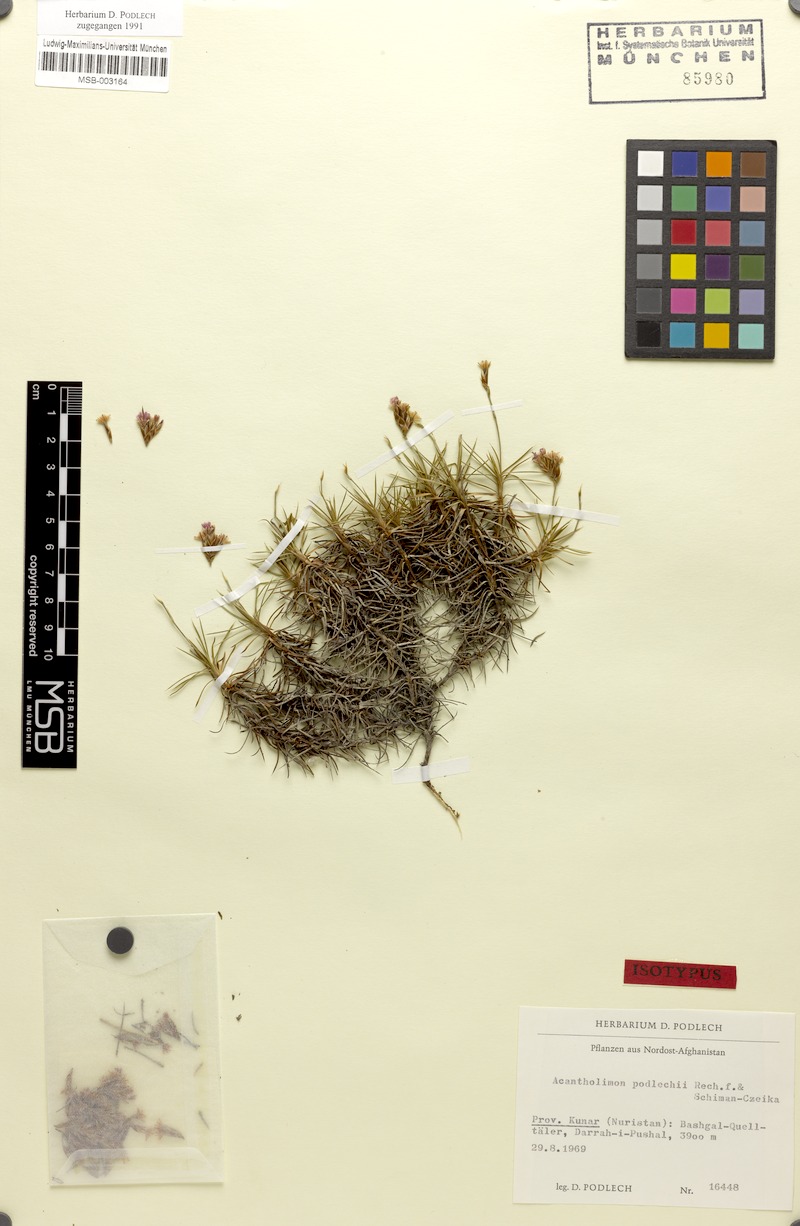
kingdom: Plantae
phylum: Tracheophyta
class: Magnoliopsida
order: Caryophyllales
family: Plumbaginaceae
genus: Acantholimon
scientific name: Acantholimon podlechii
